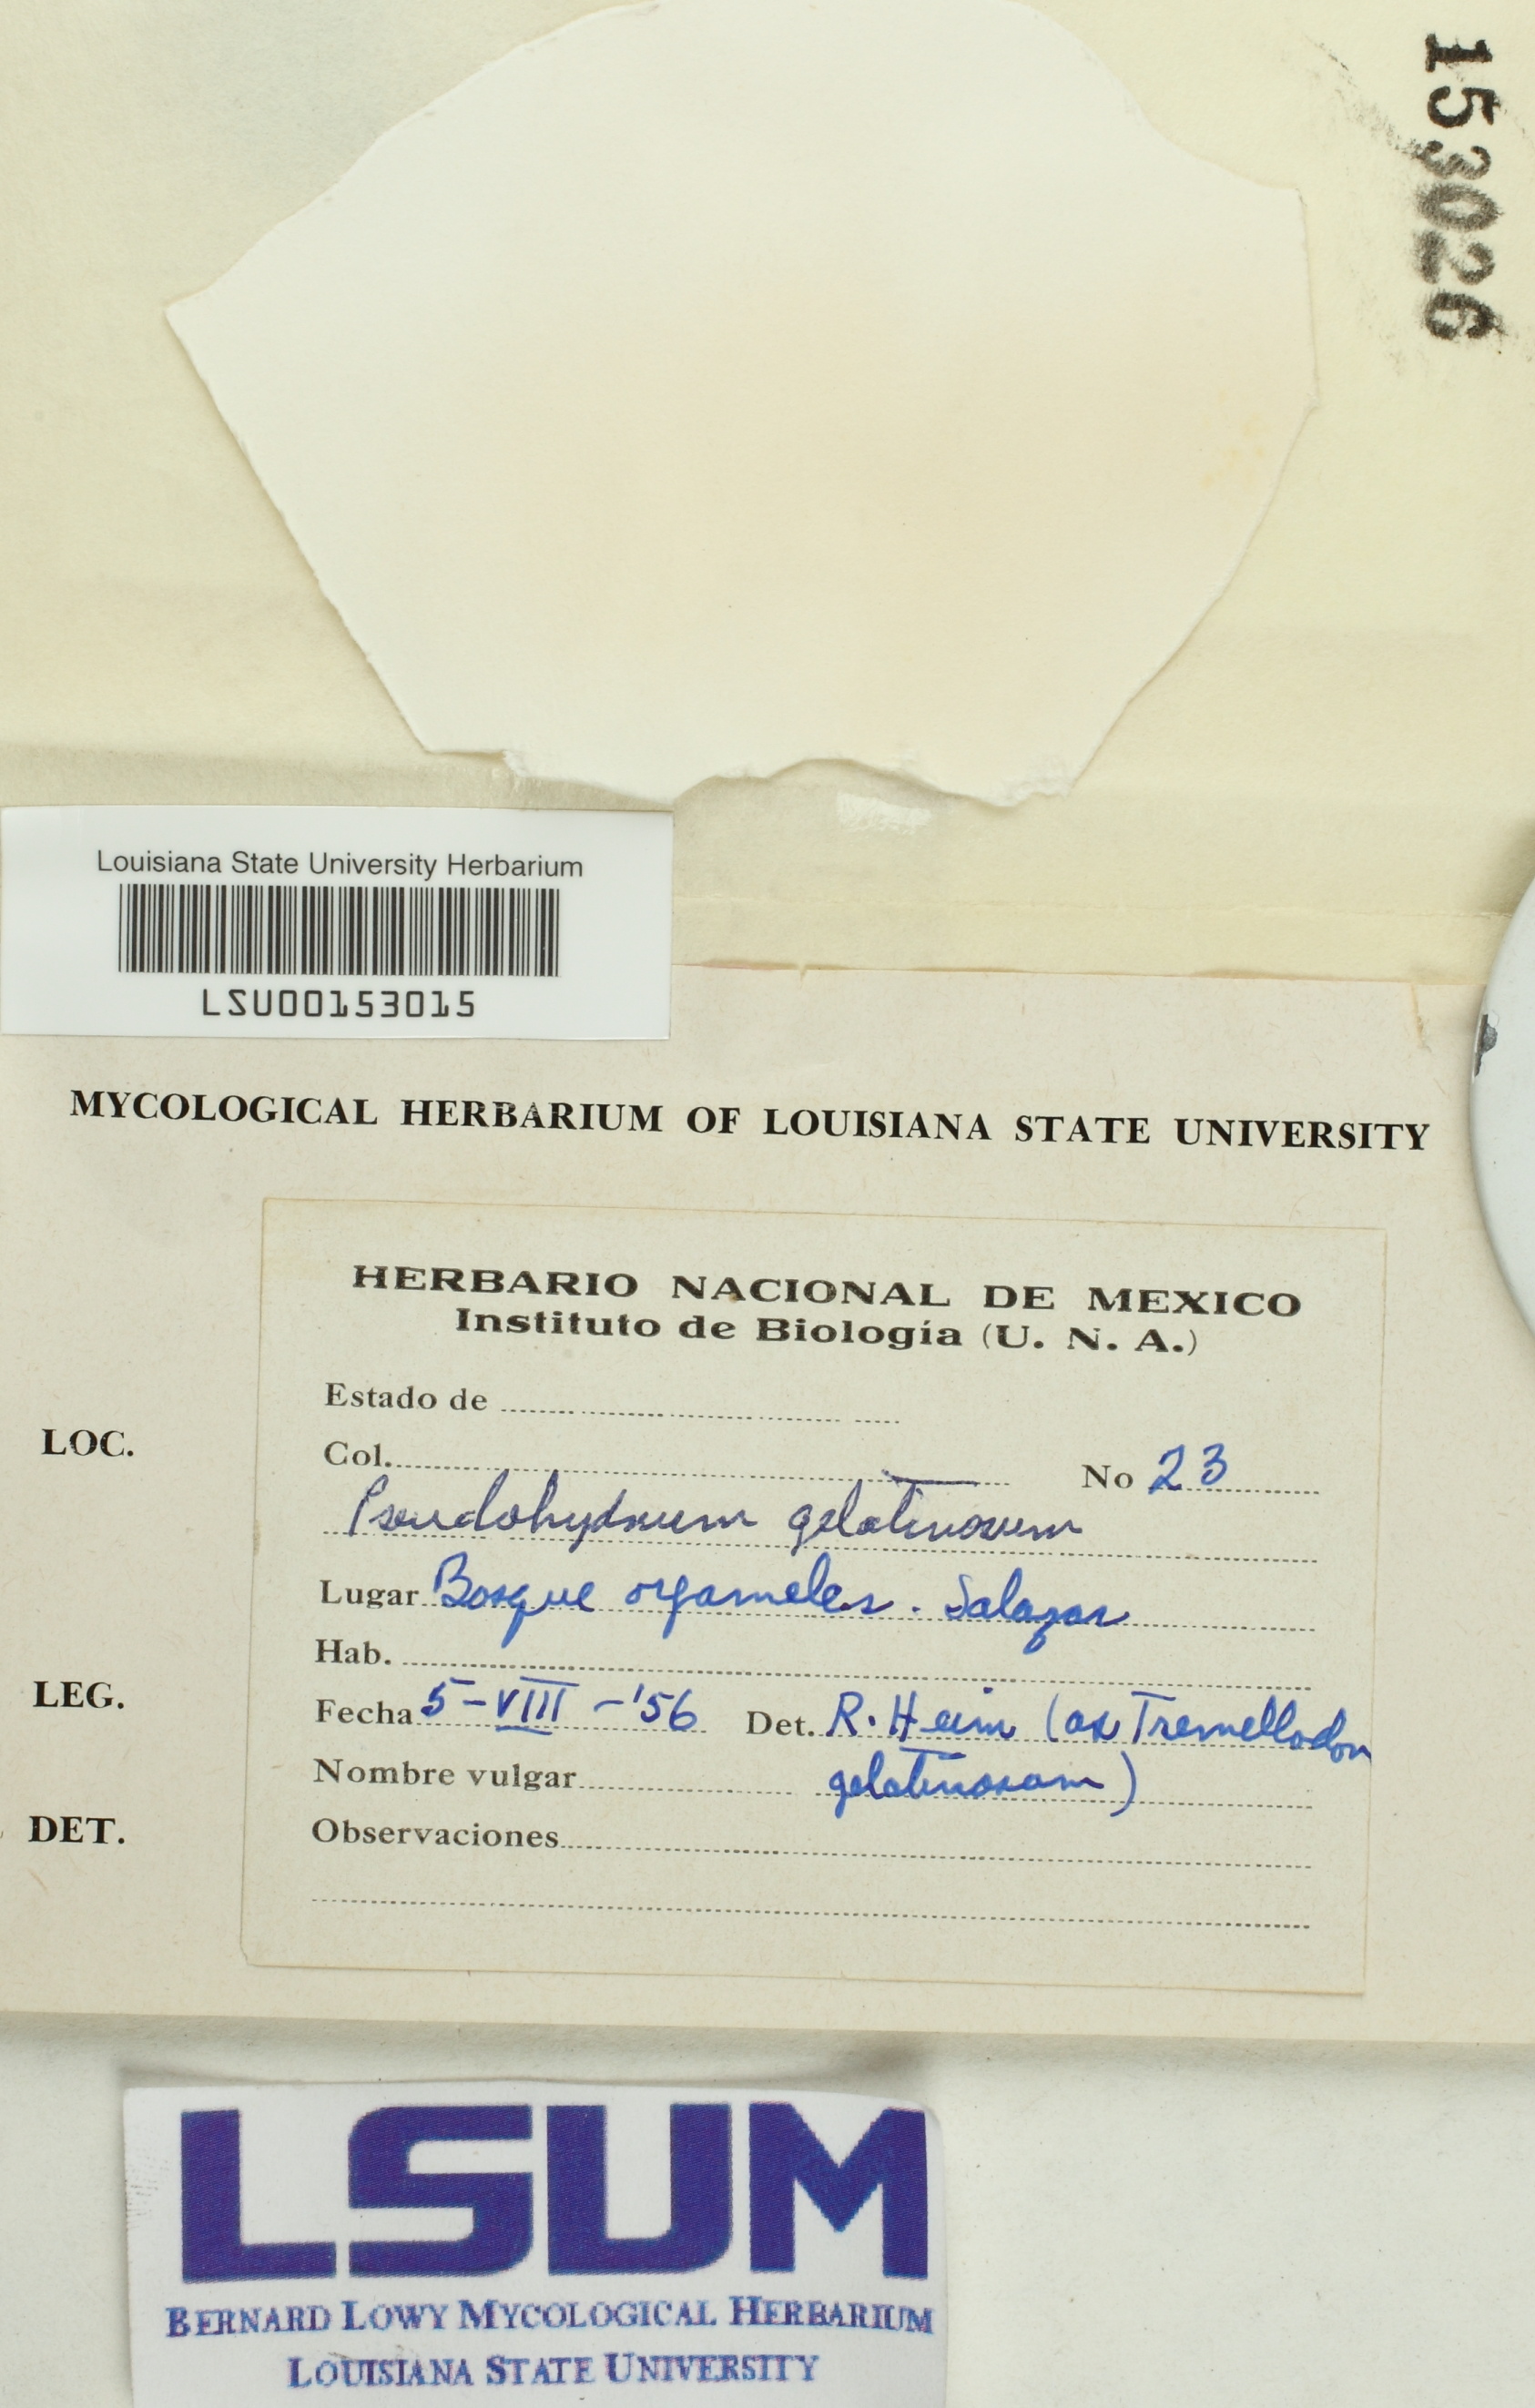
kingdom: Fungi
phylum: Basidiomycota
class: Agaricomycetes
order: Auriculariales
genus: Pseudohydnum
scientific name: Pseudohydnum gelatinosum
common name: Jelly tongue
